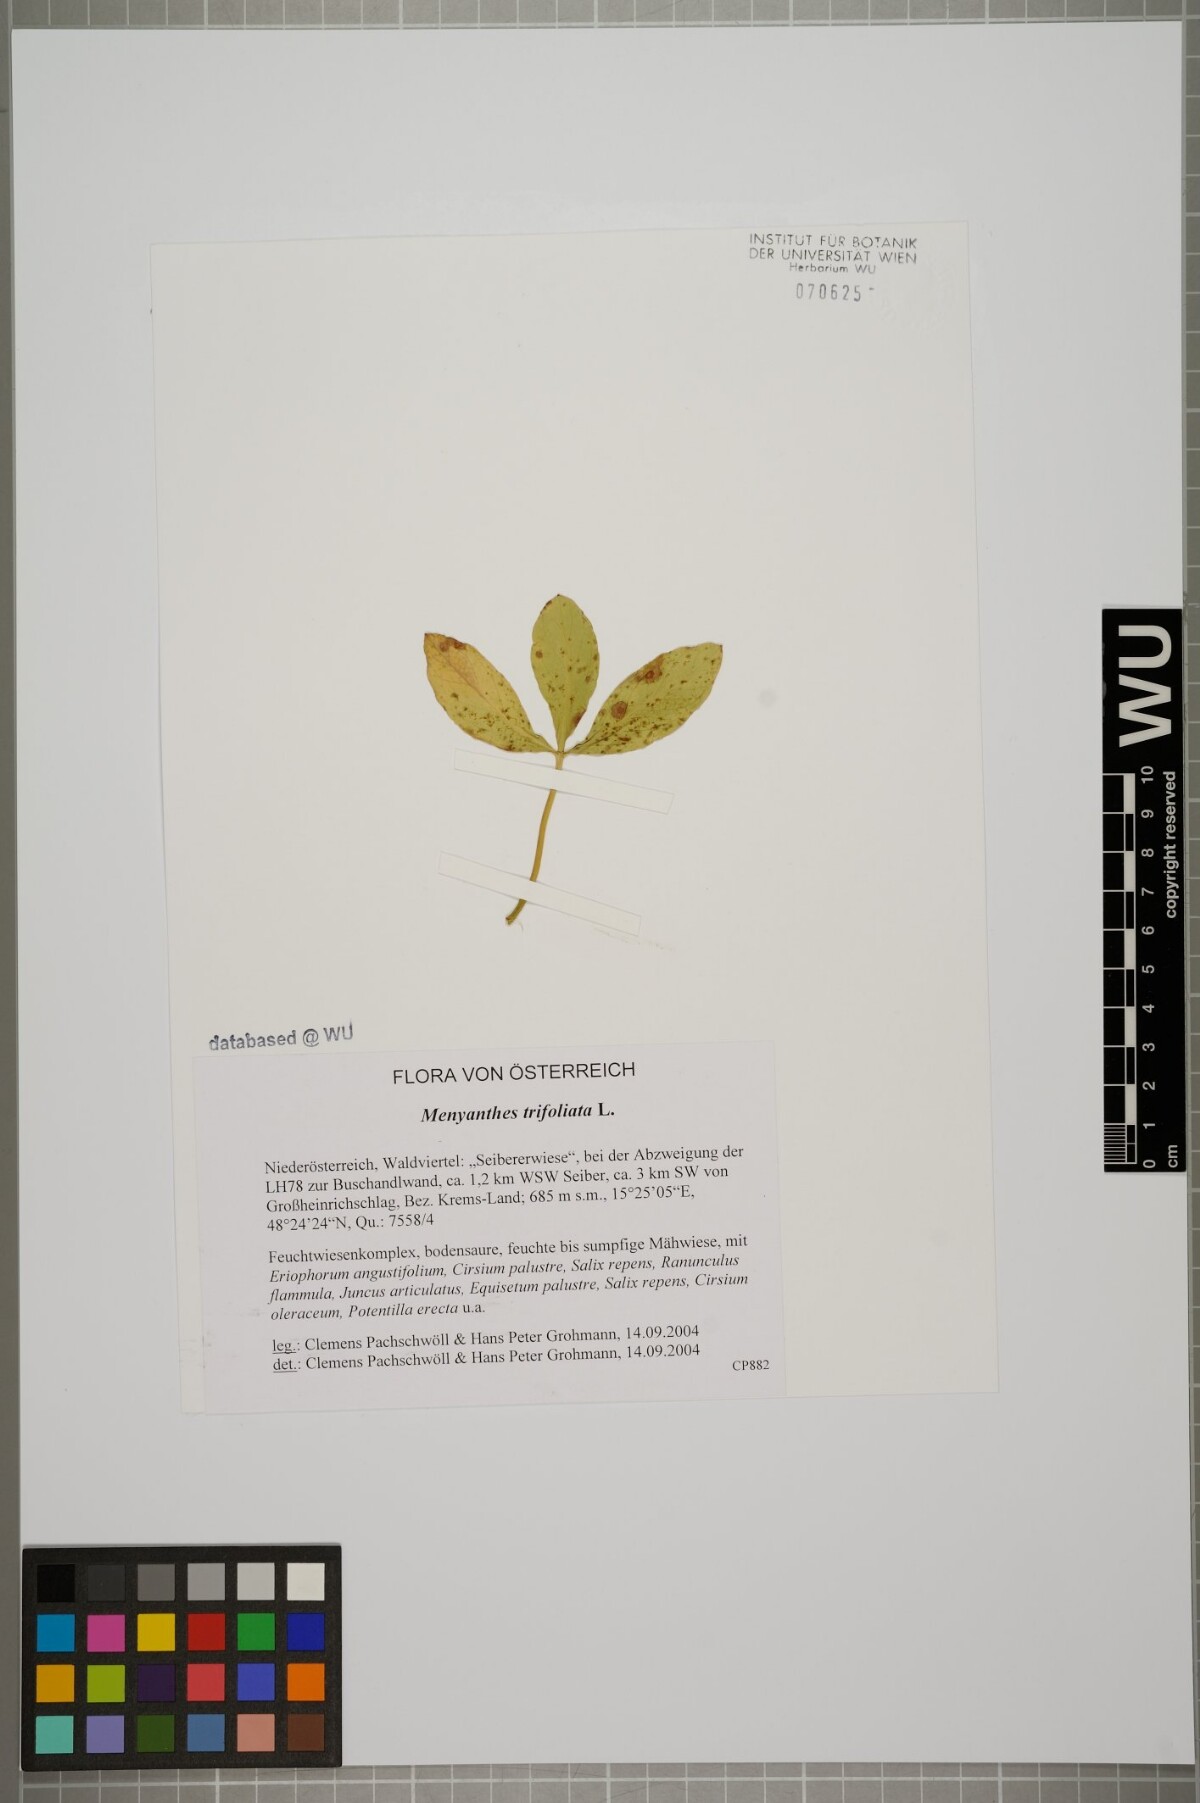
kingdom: Plantae
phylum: Tracheophyta
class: Magnoliopsida
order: Asterales
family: Menyanthaceae
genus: Menyanthes
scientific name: Menyanthes trifoliata
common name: Bogbean
